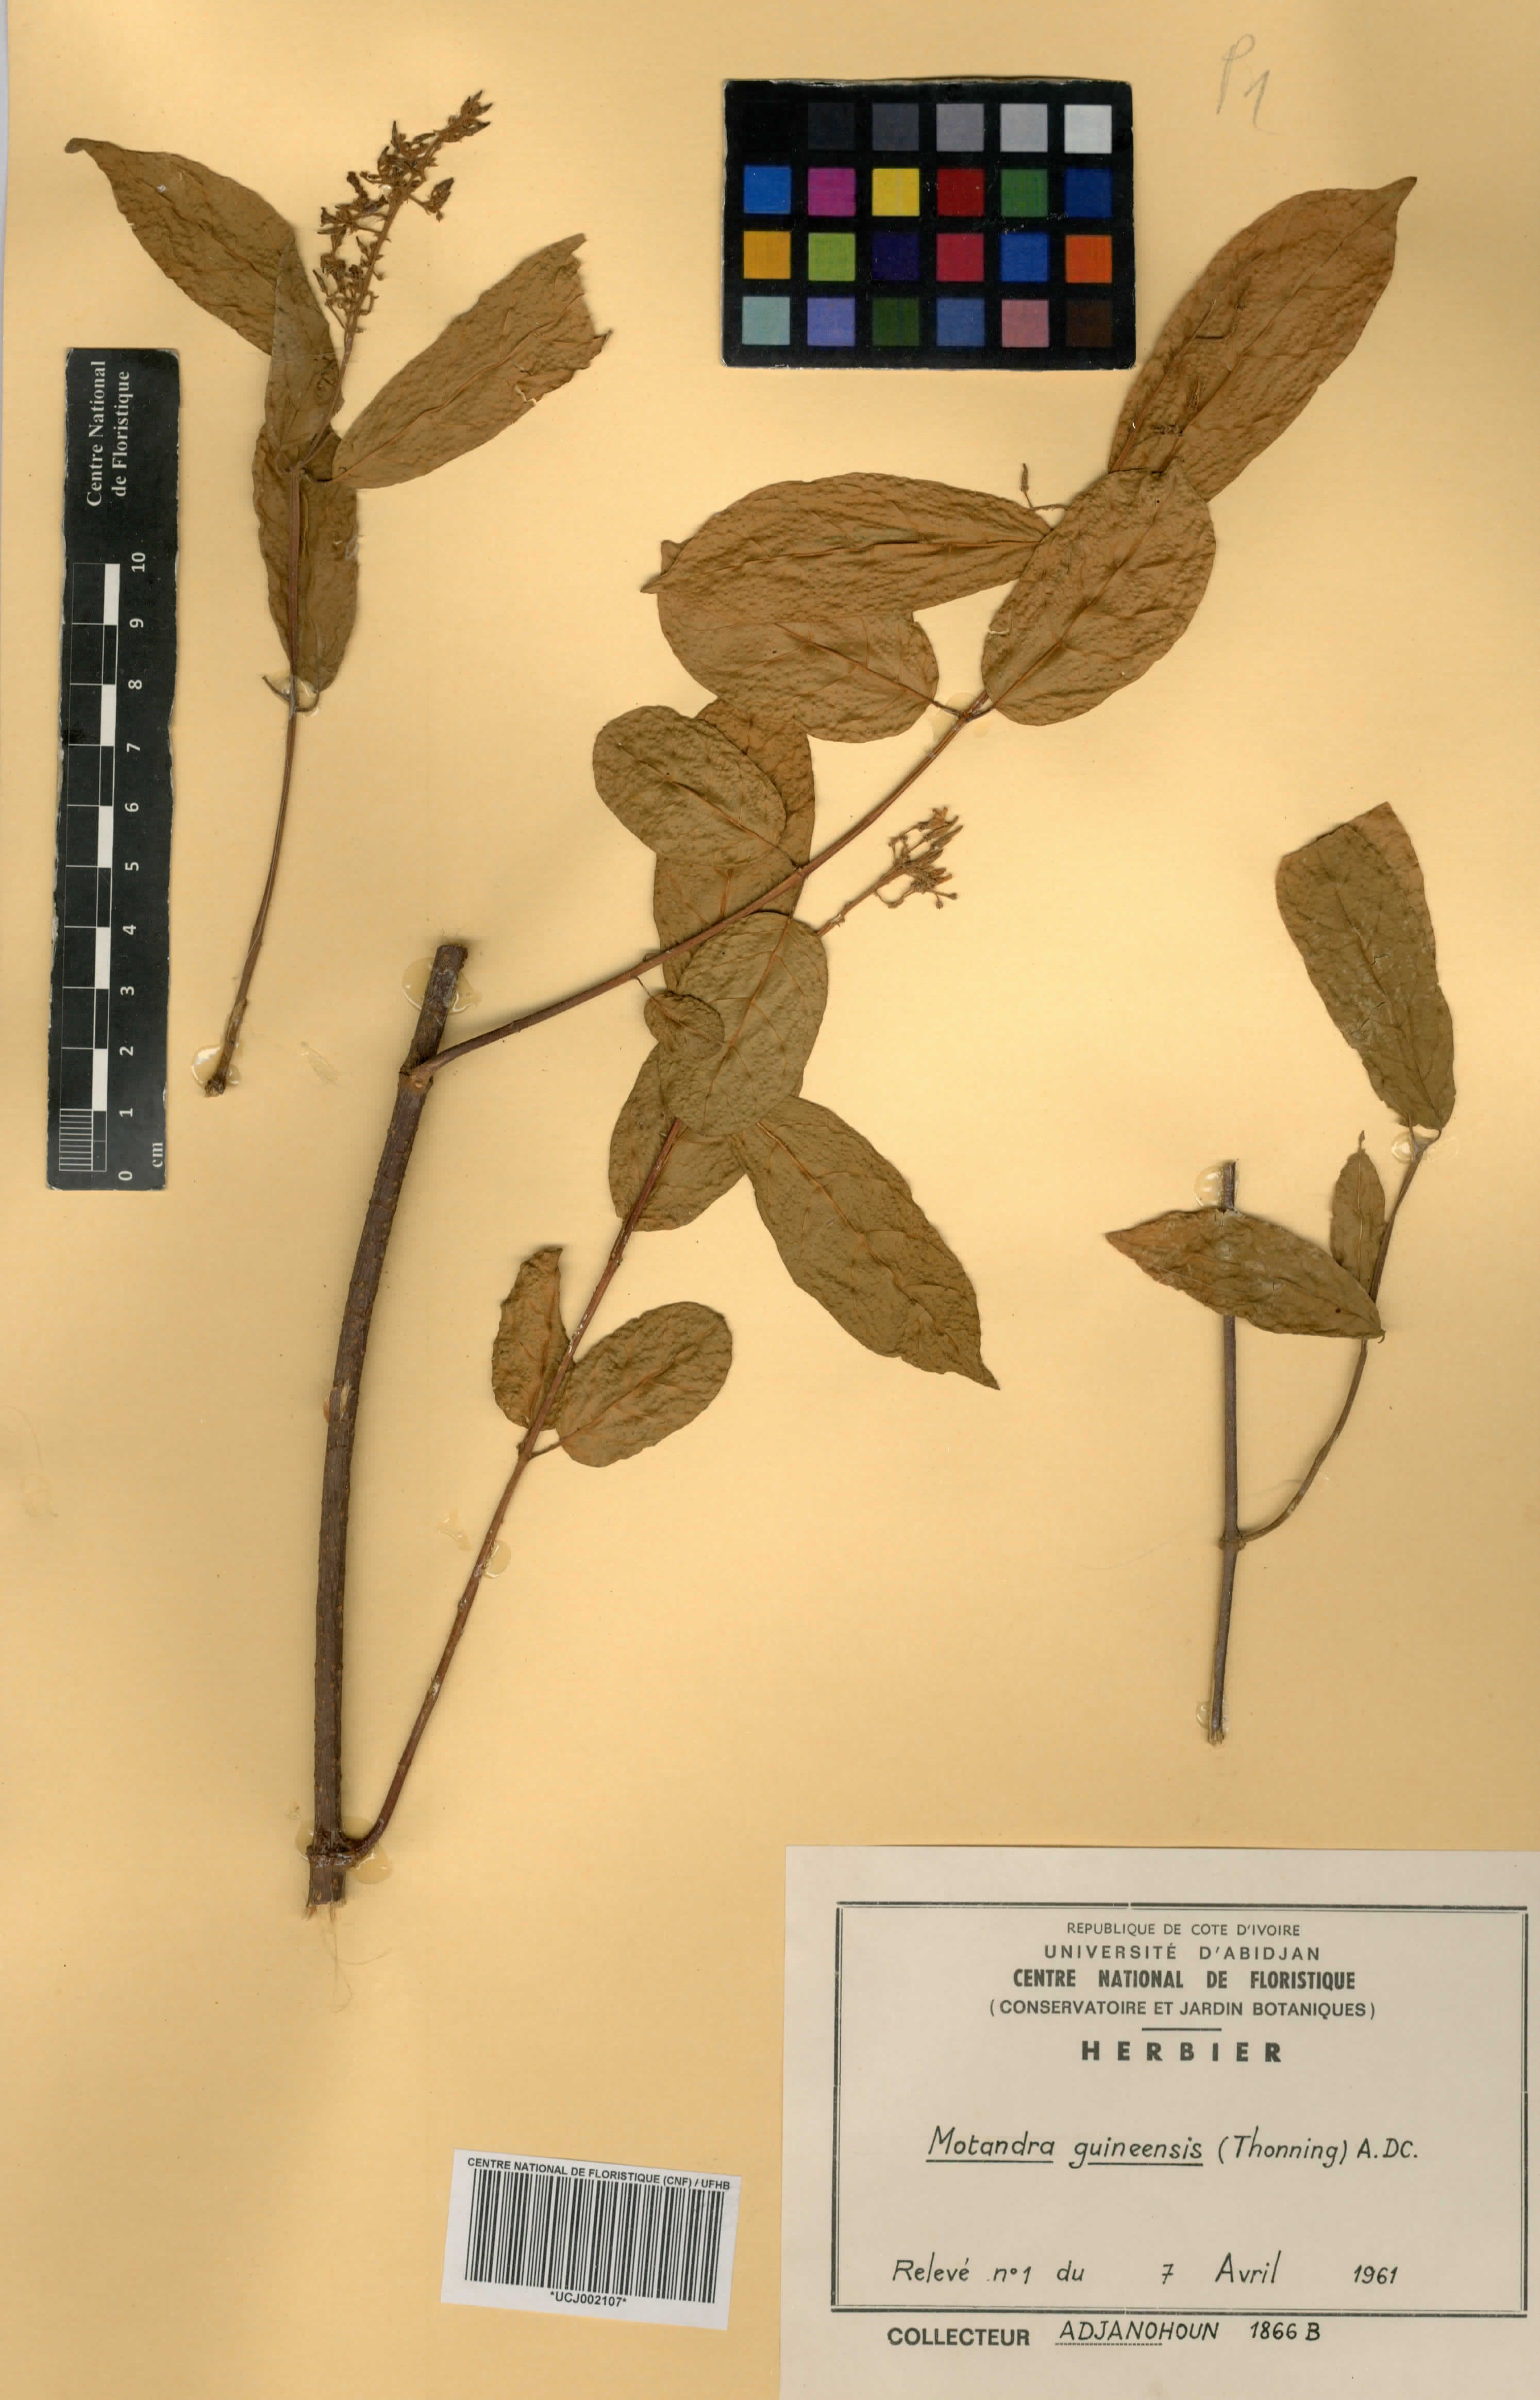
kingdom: Plantae
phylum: Tracheophyta
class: Magnoliopsida
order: Gentianales
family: Apocynaceae
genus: Motandra
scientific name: Motandra paniculata
